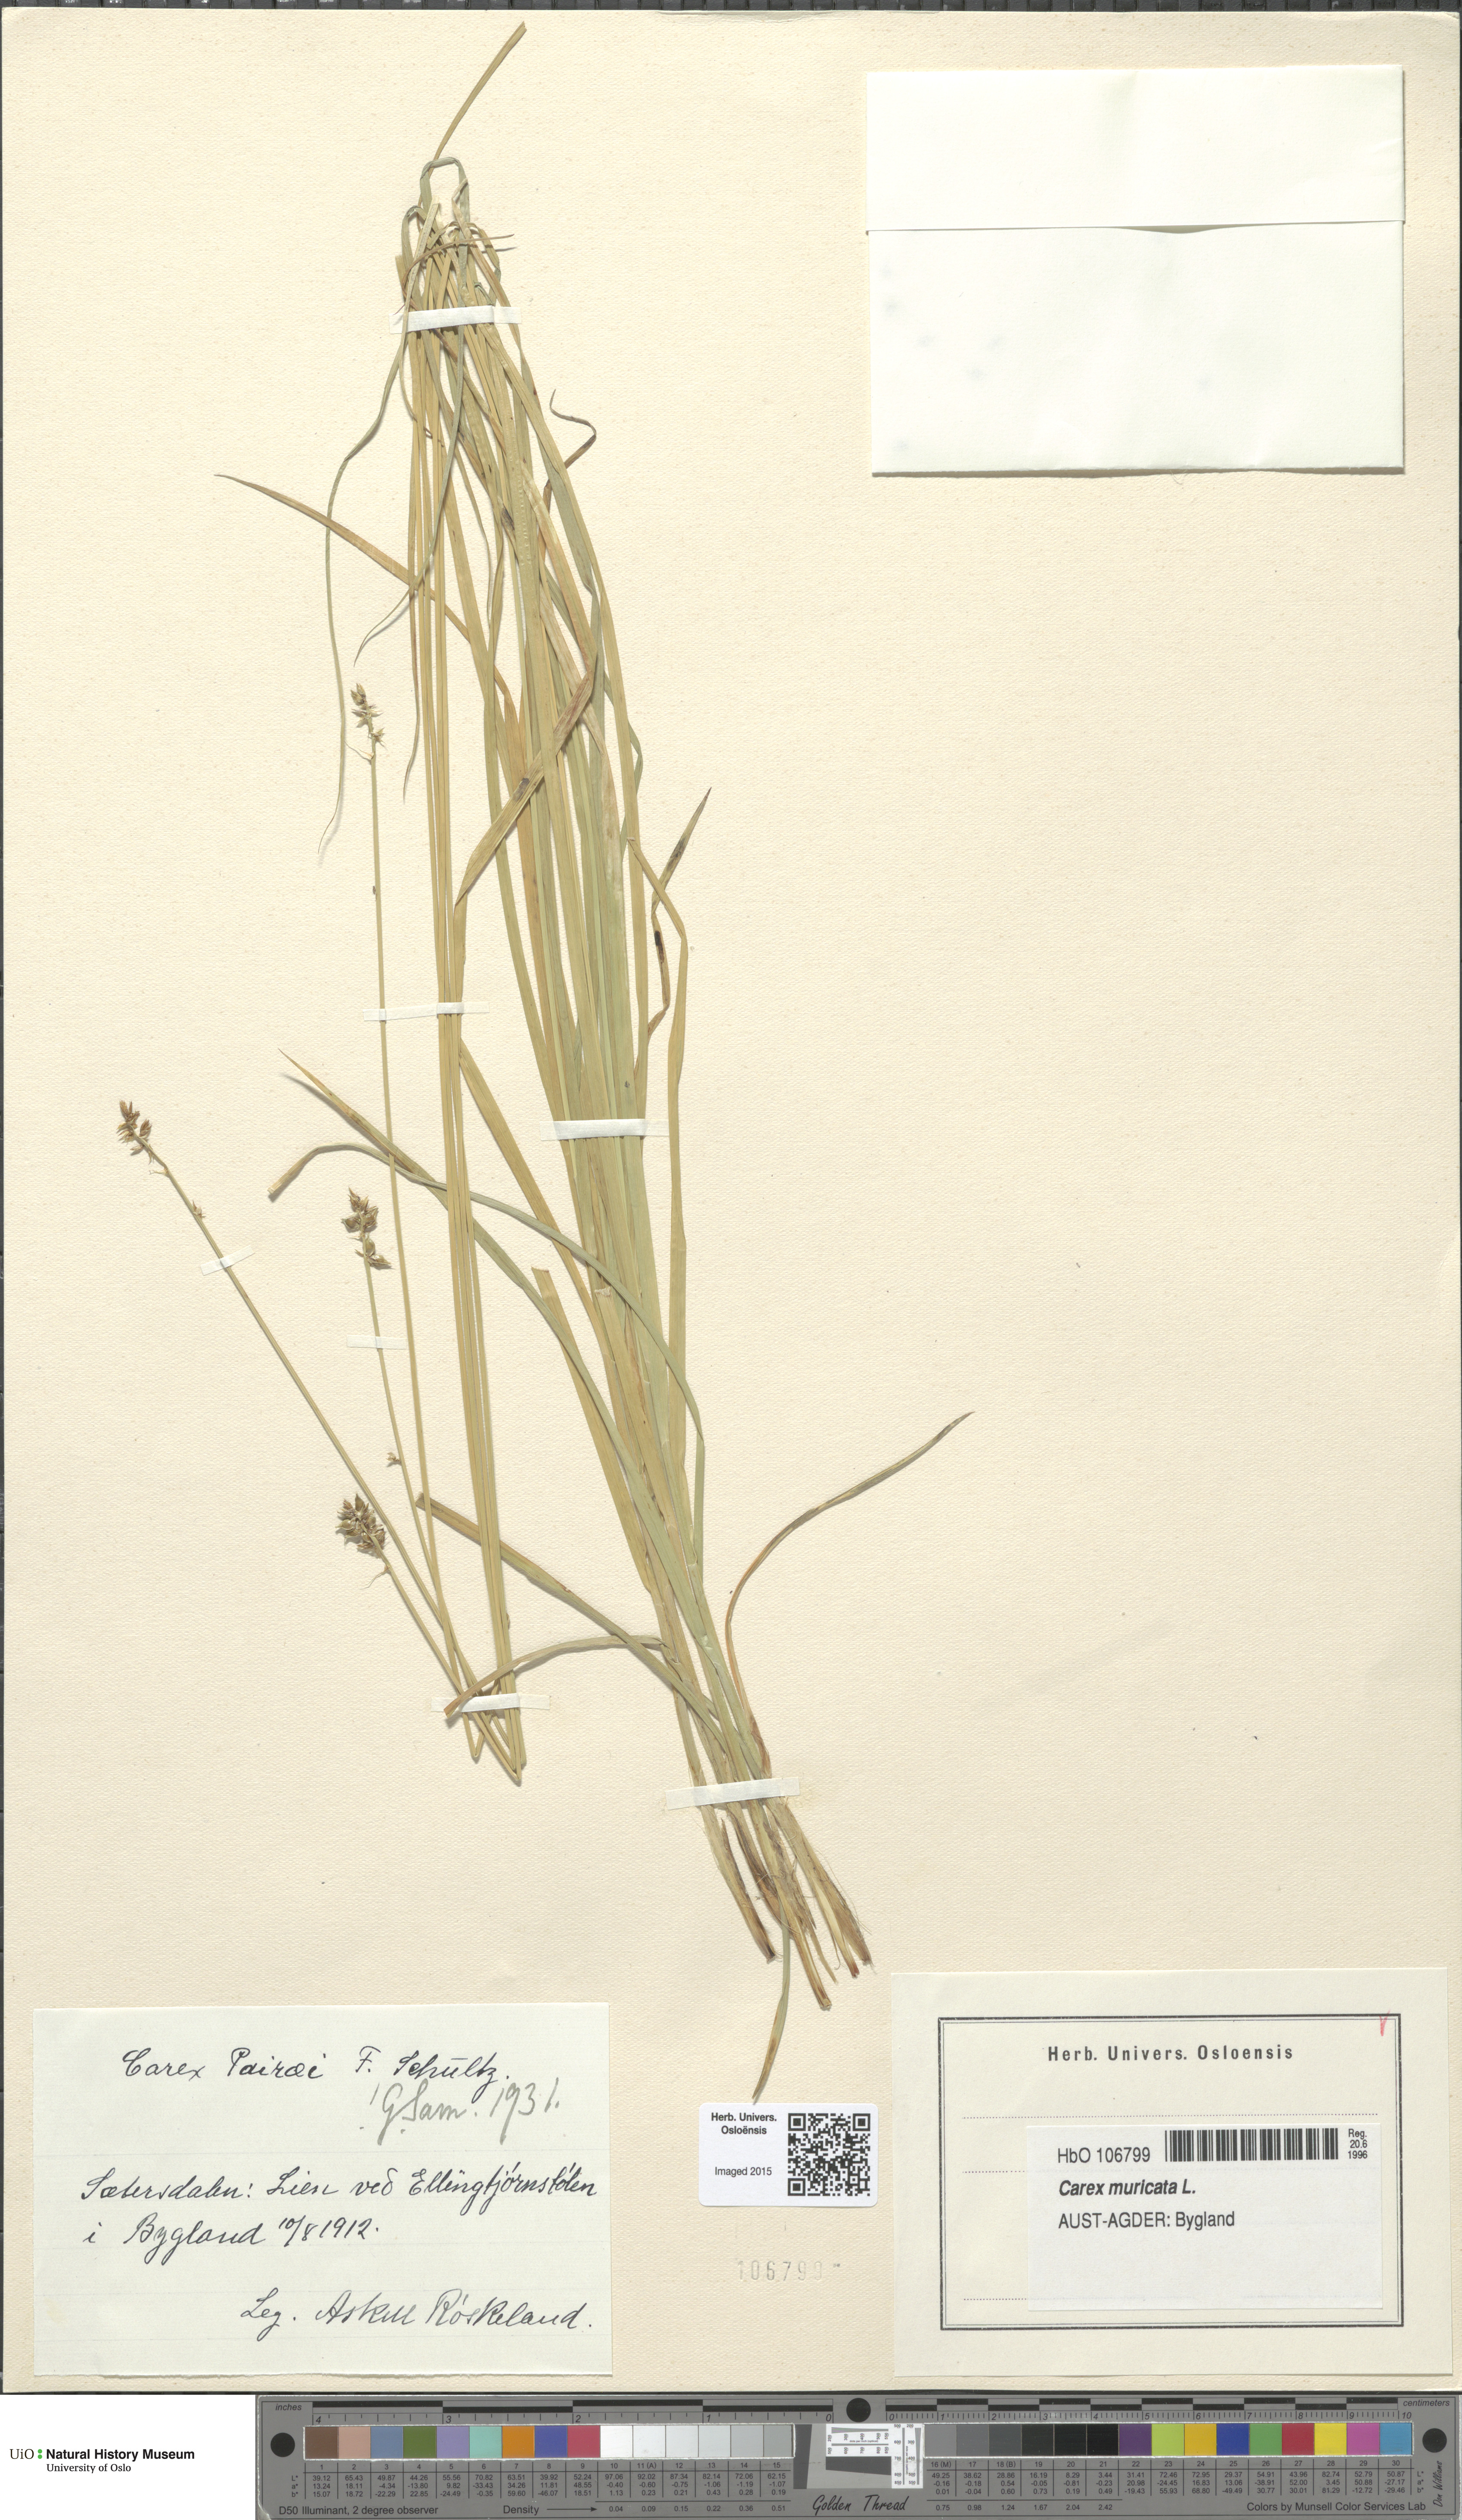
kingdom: Plantae
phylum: Tracheophyta
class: Liliopsida
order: Poales
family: Cyperaceae
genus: Carex
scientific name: Carex pairae
